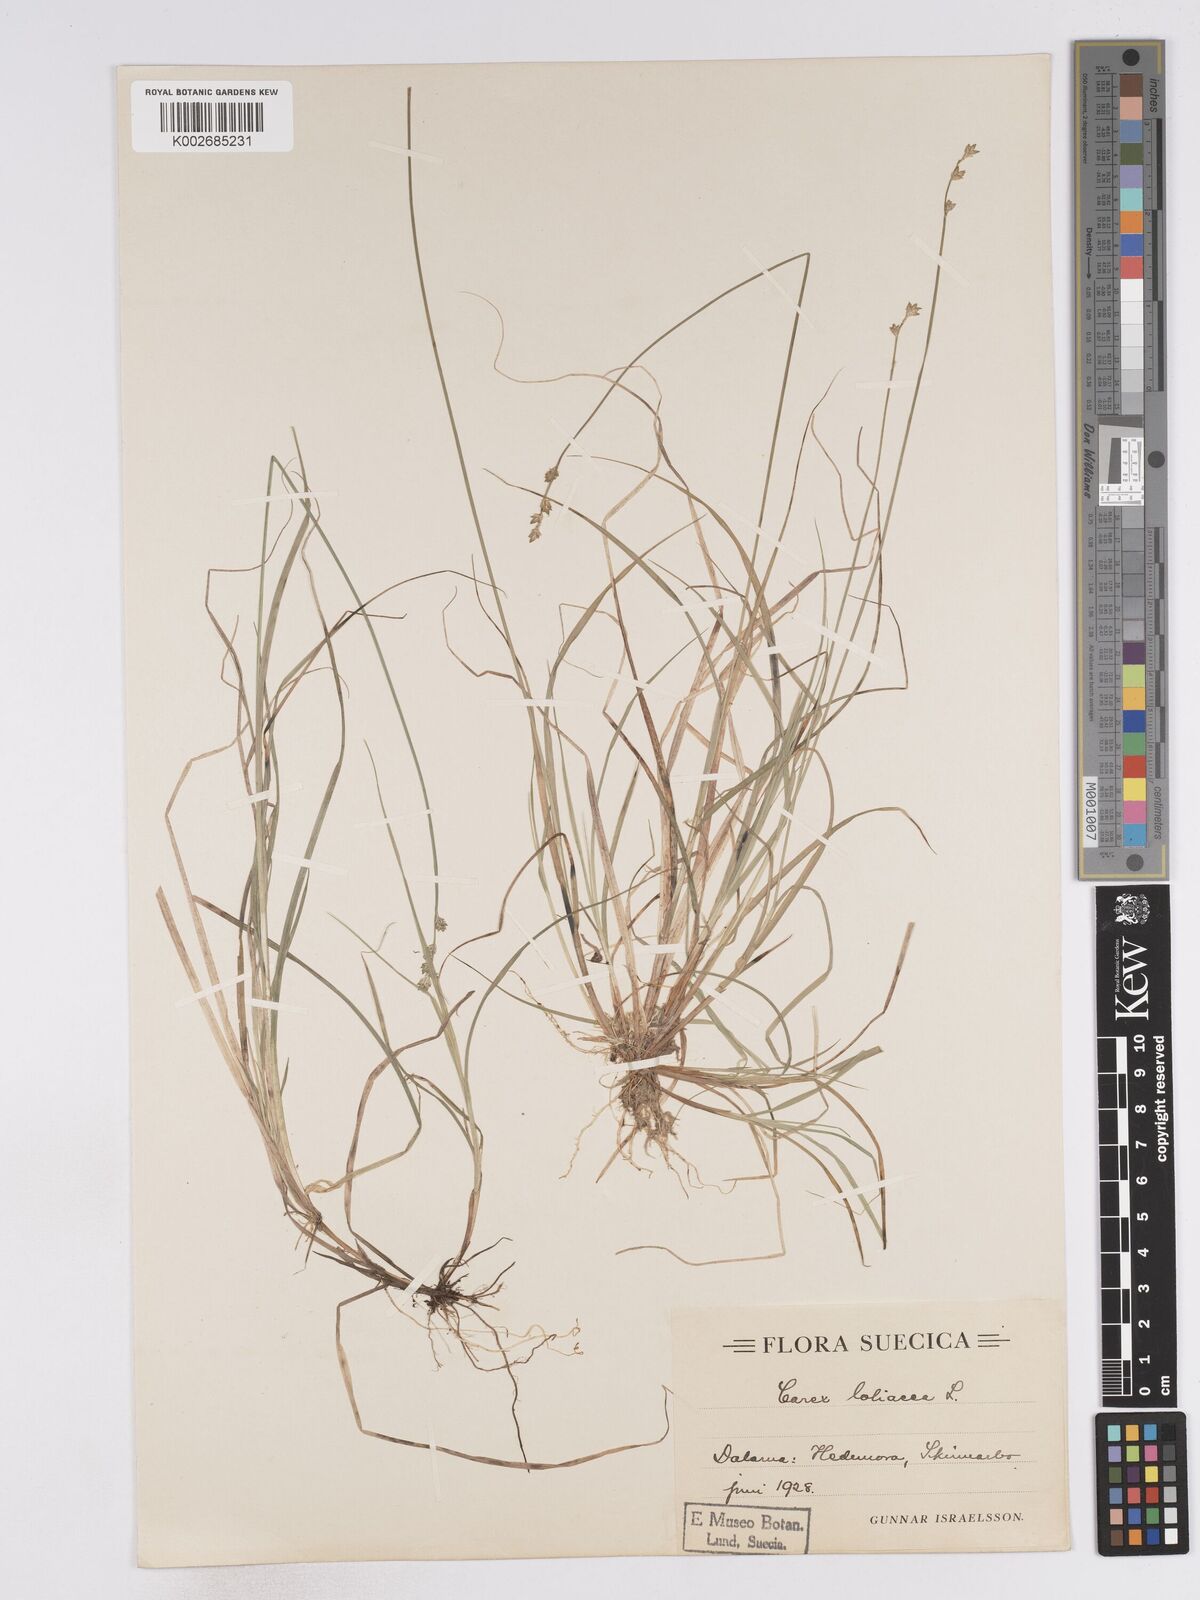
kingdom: Plantae
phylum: Tracheophyta
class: Liliopsida
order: Poales
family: Cyperaceae
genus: Carex
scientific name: Carex loliacea
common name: Ryegrass sedge
